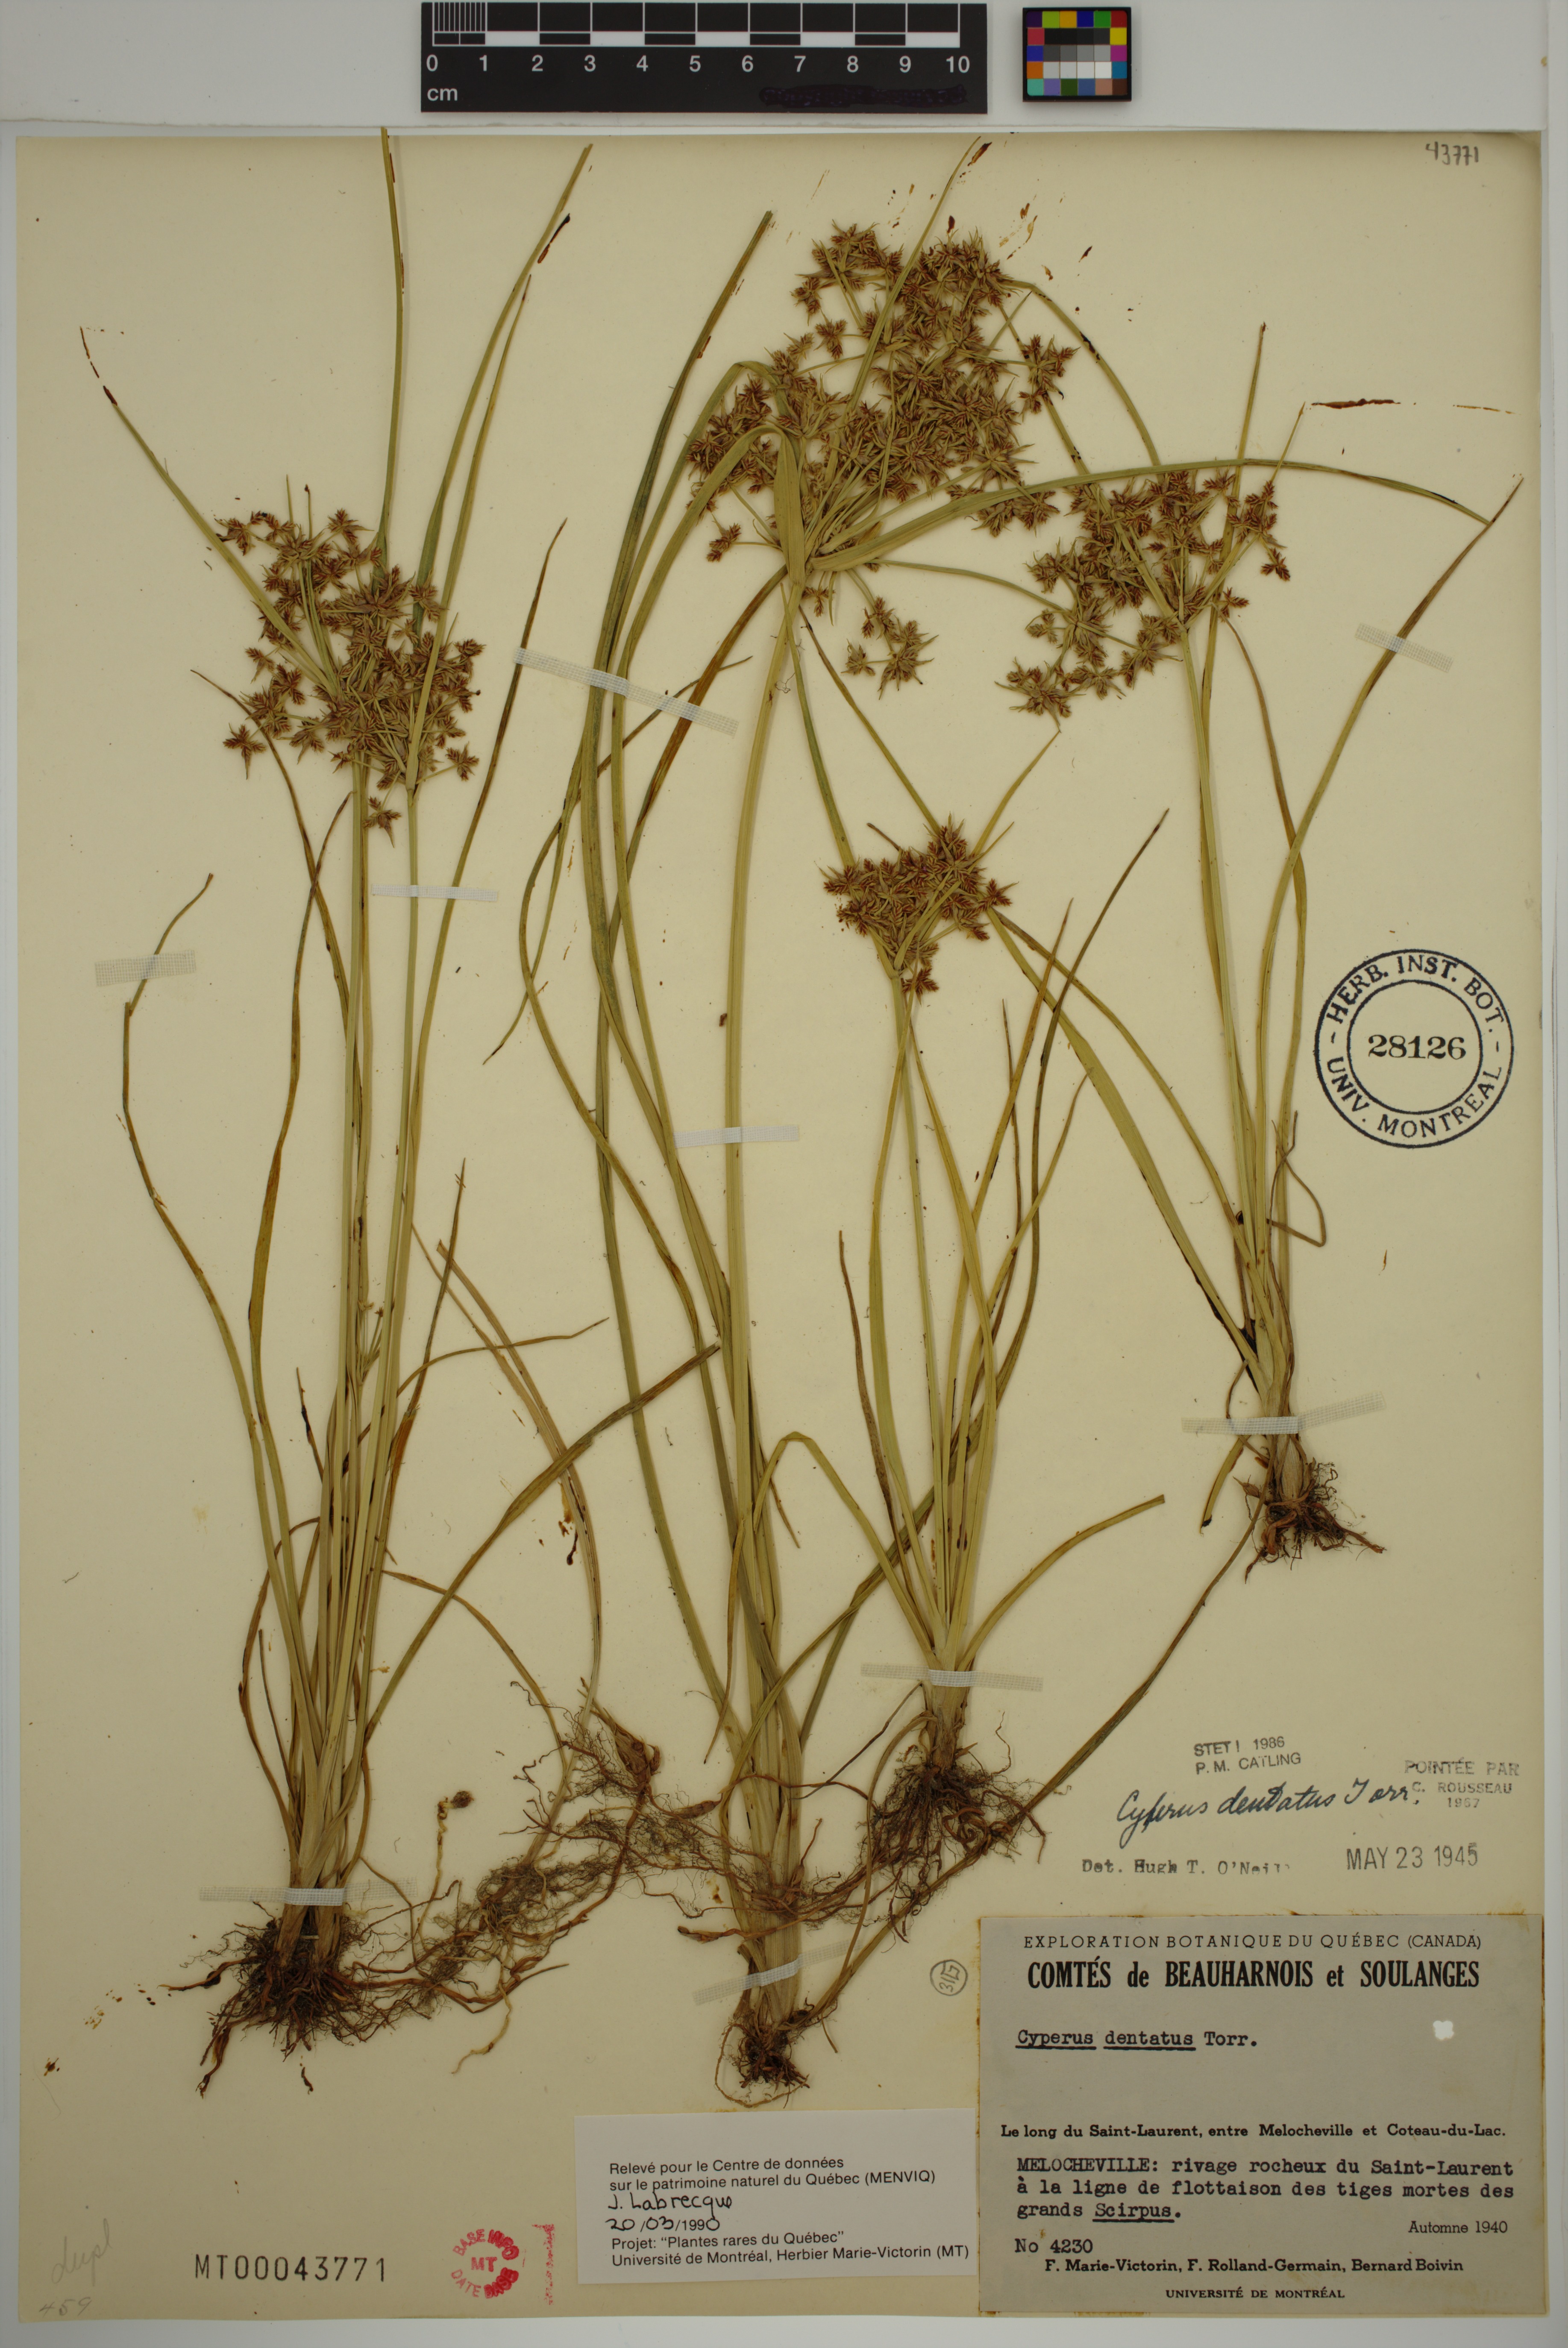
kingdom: Plantae
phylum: Tracheophyta
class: Liliopsida
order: Poales
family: Cyperaceae
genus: Cyperus
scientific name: Cyperus dentatus
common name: Dentate umbrella sedge
